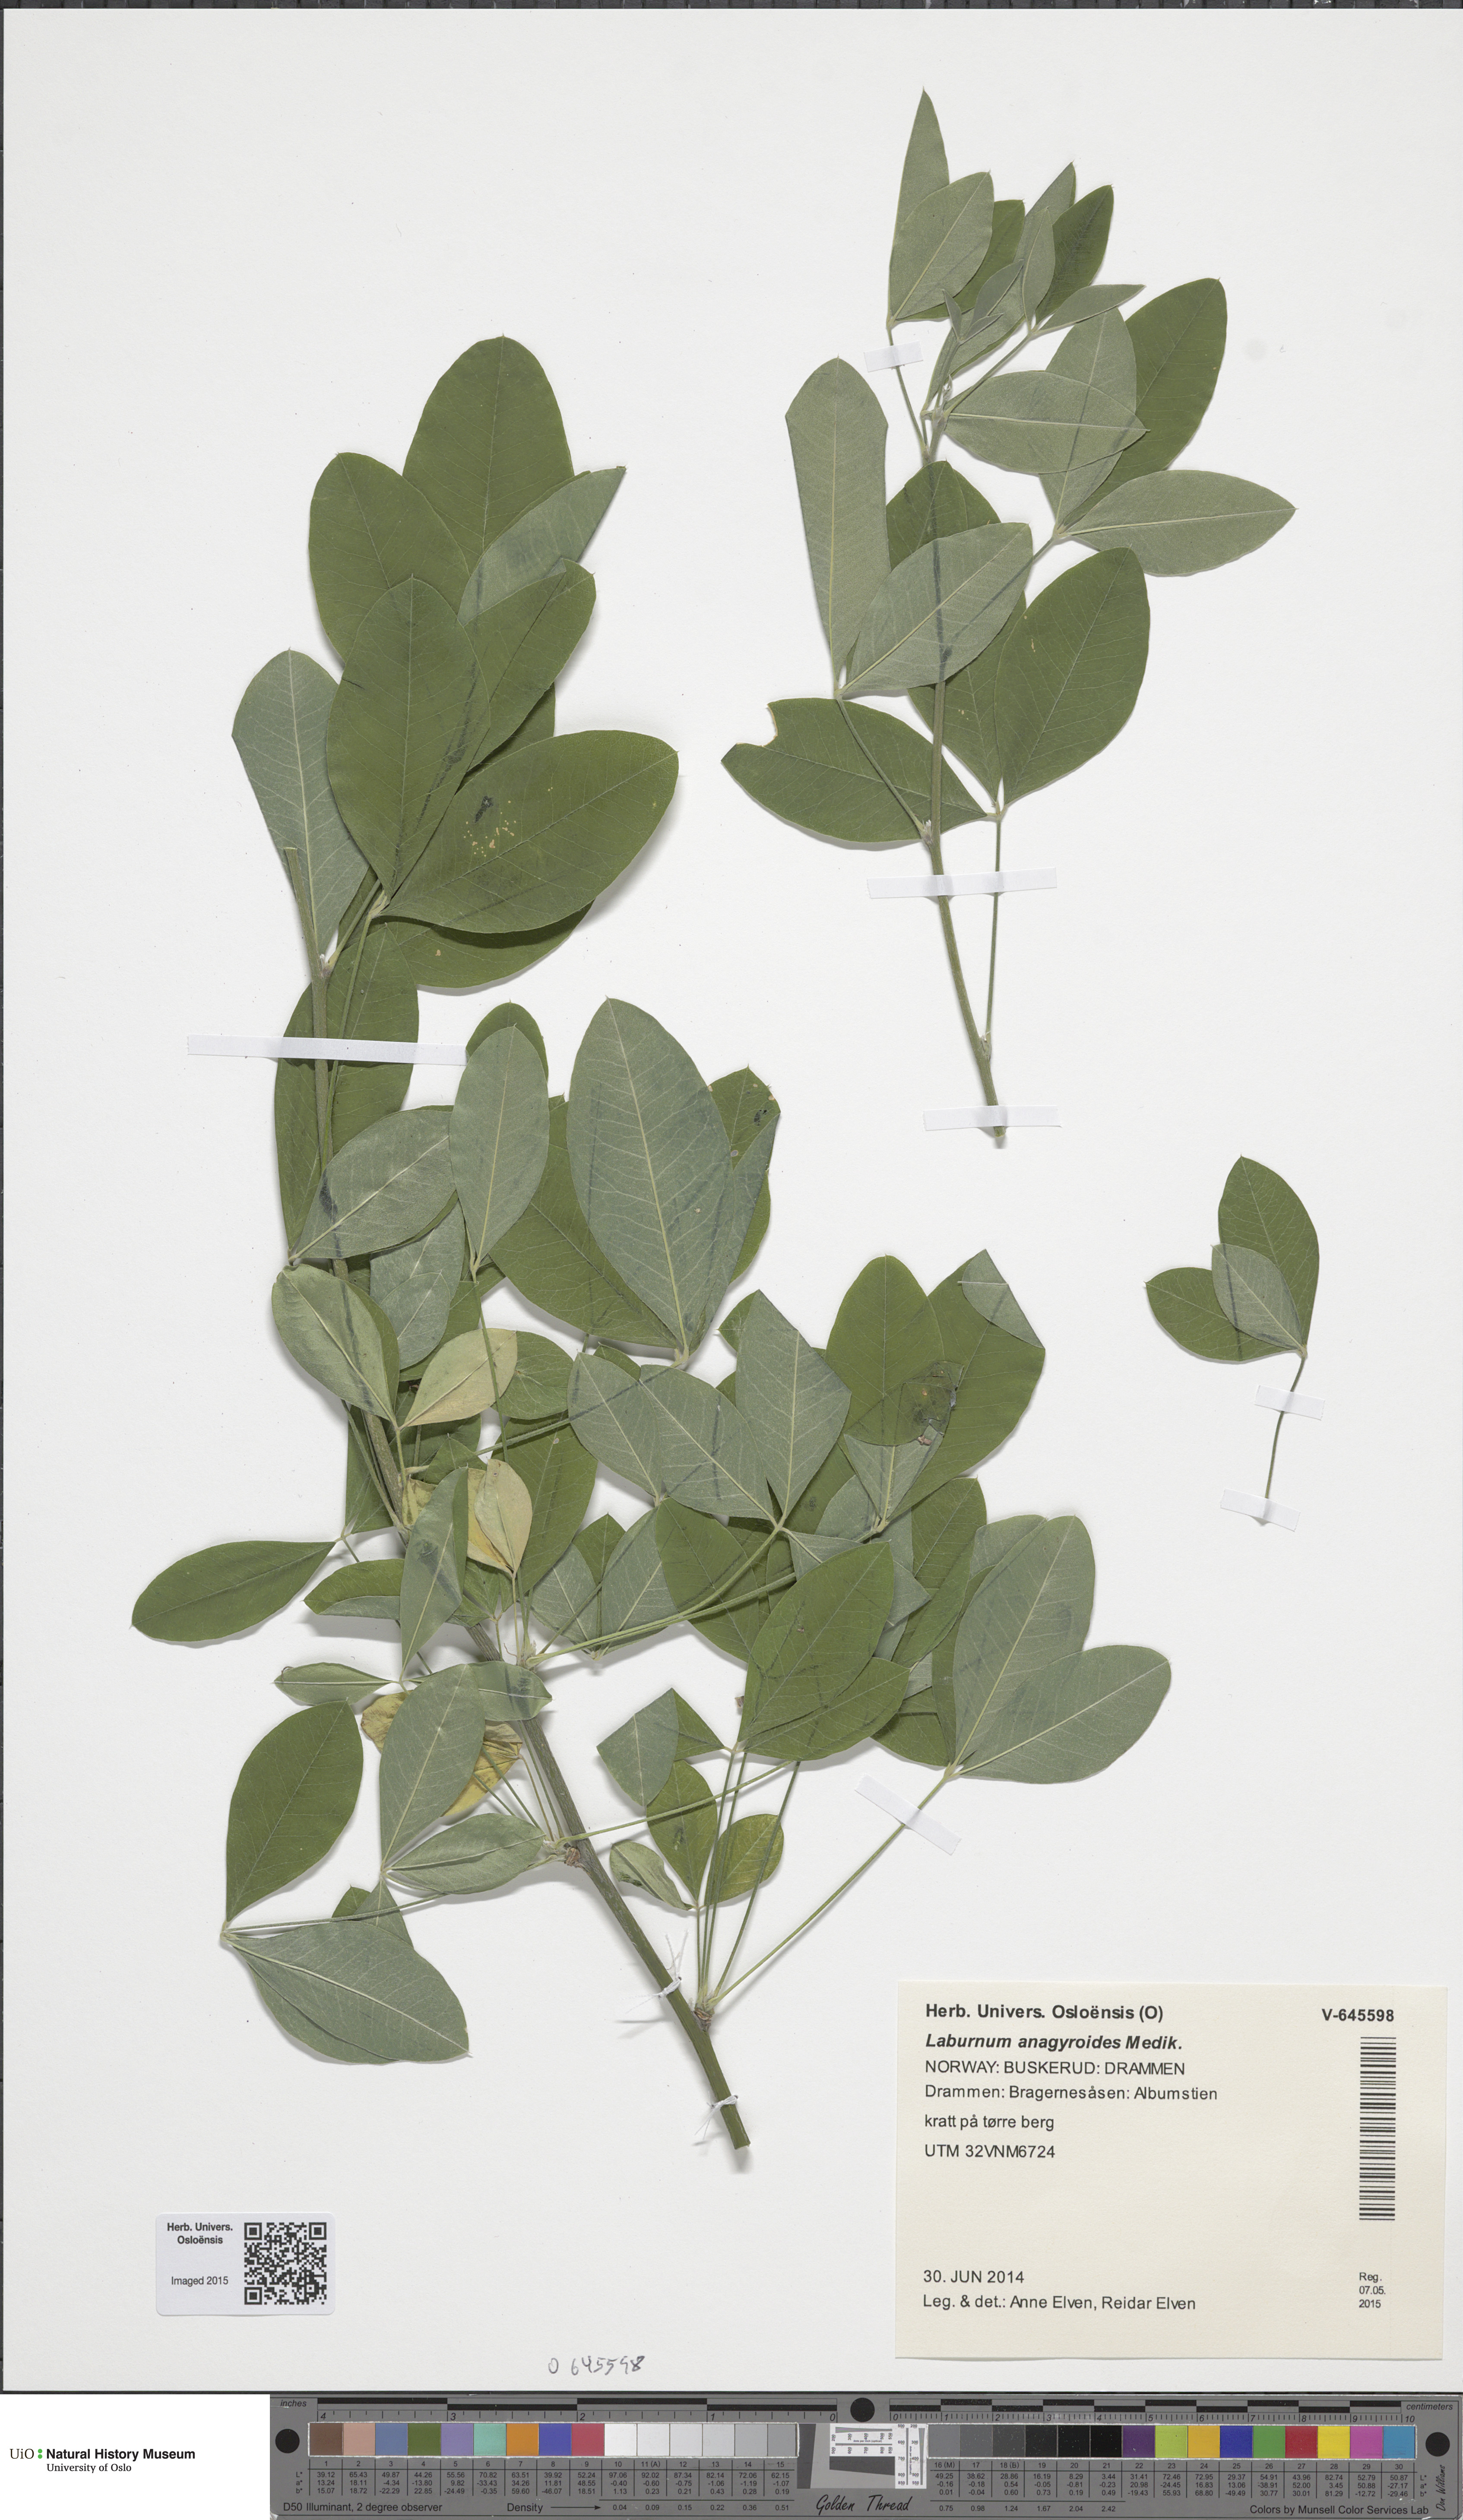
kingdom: Plantae
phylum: Tracheophyta
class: Magnoliopsida
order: Fabales
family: Fabaceae
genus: Laburnum
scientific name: Laburnum anagyroides
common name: Laburnum
